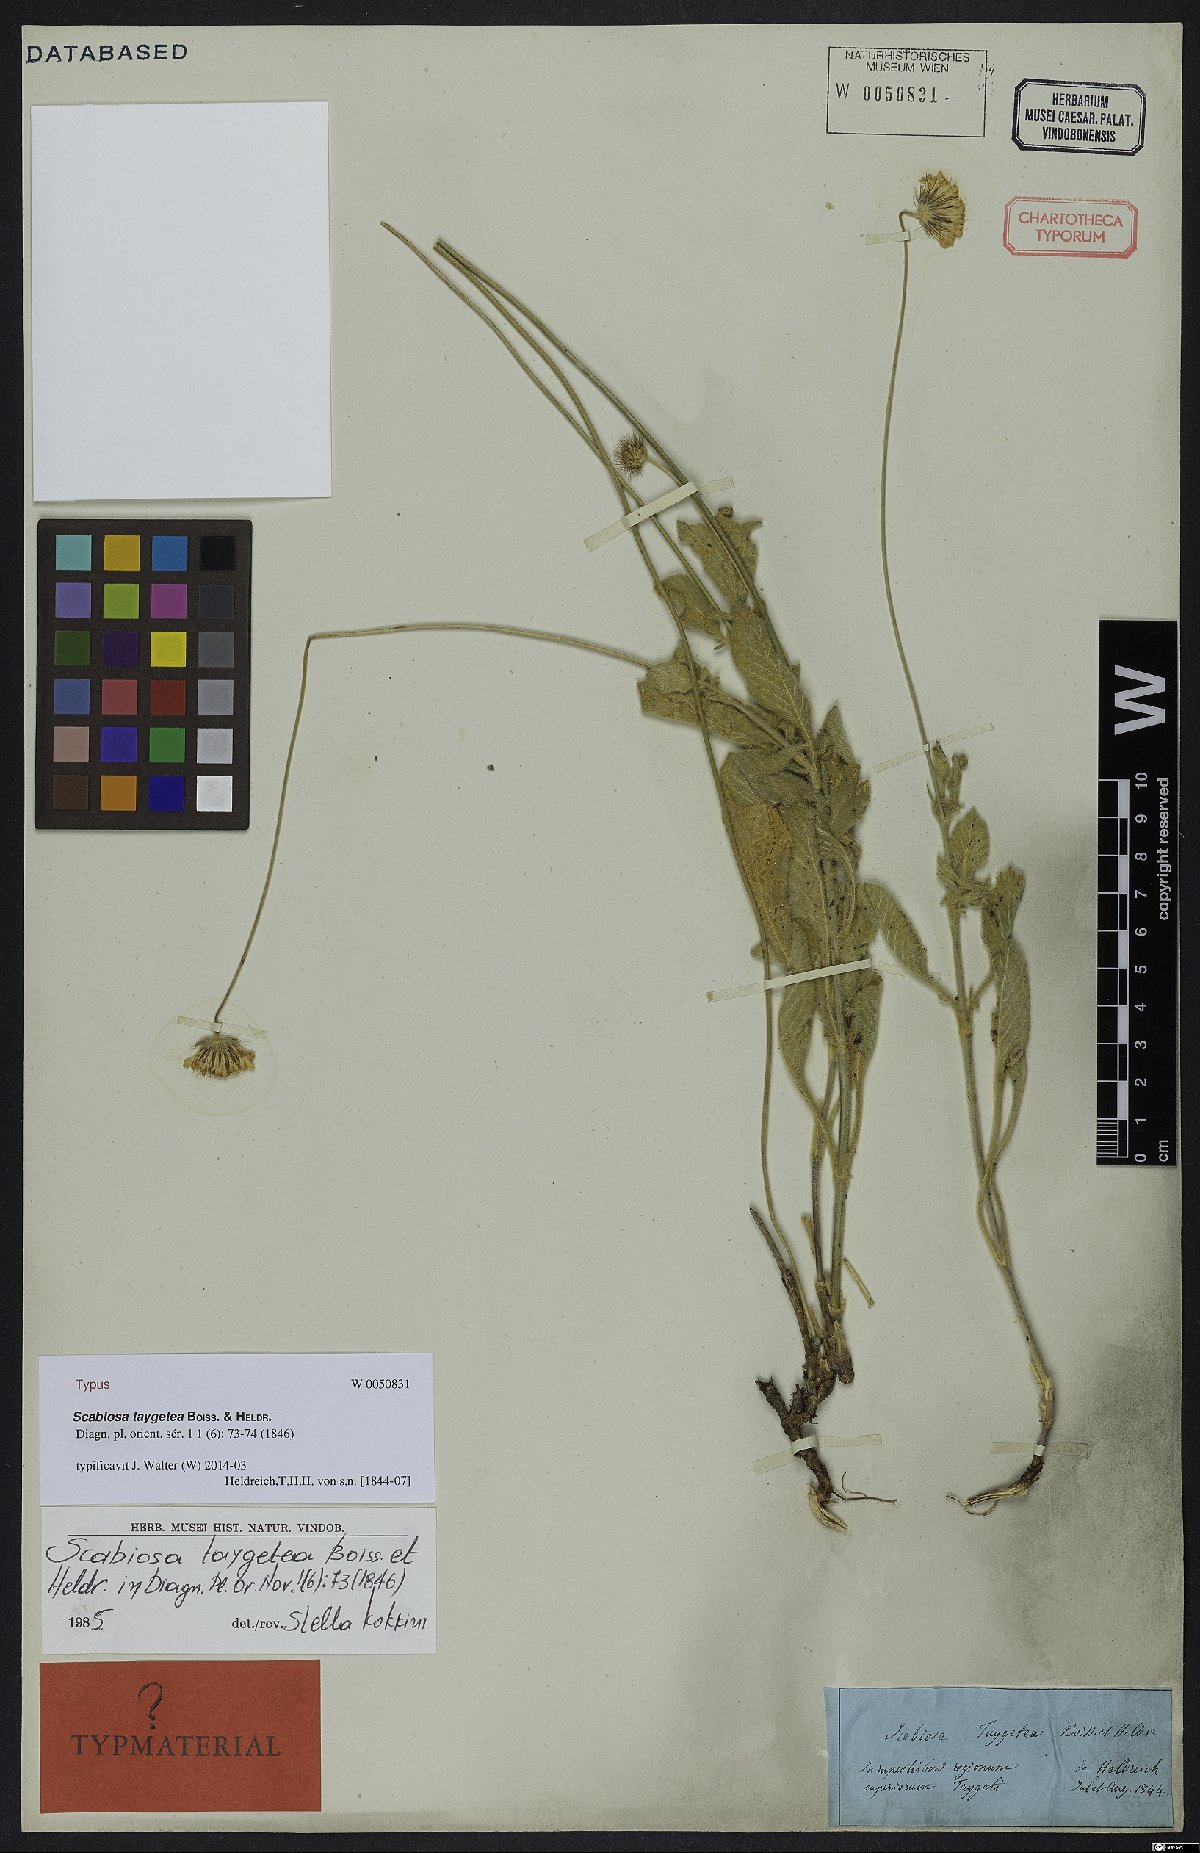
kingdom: Plantae
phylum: Tracheophyta
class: Magnoliopsida
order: Dipsacales
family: Caprifoliaceae
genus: Scabiosa
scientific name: Scabiosa taygetea
